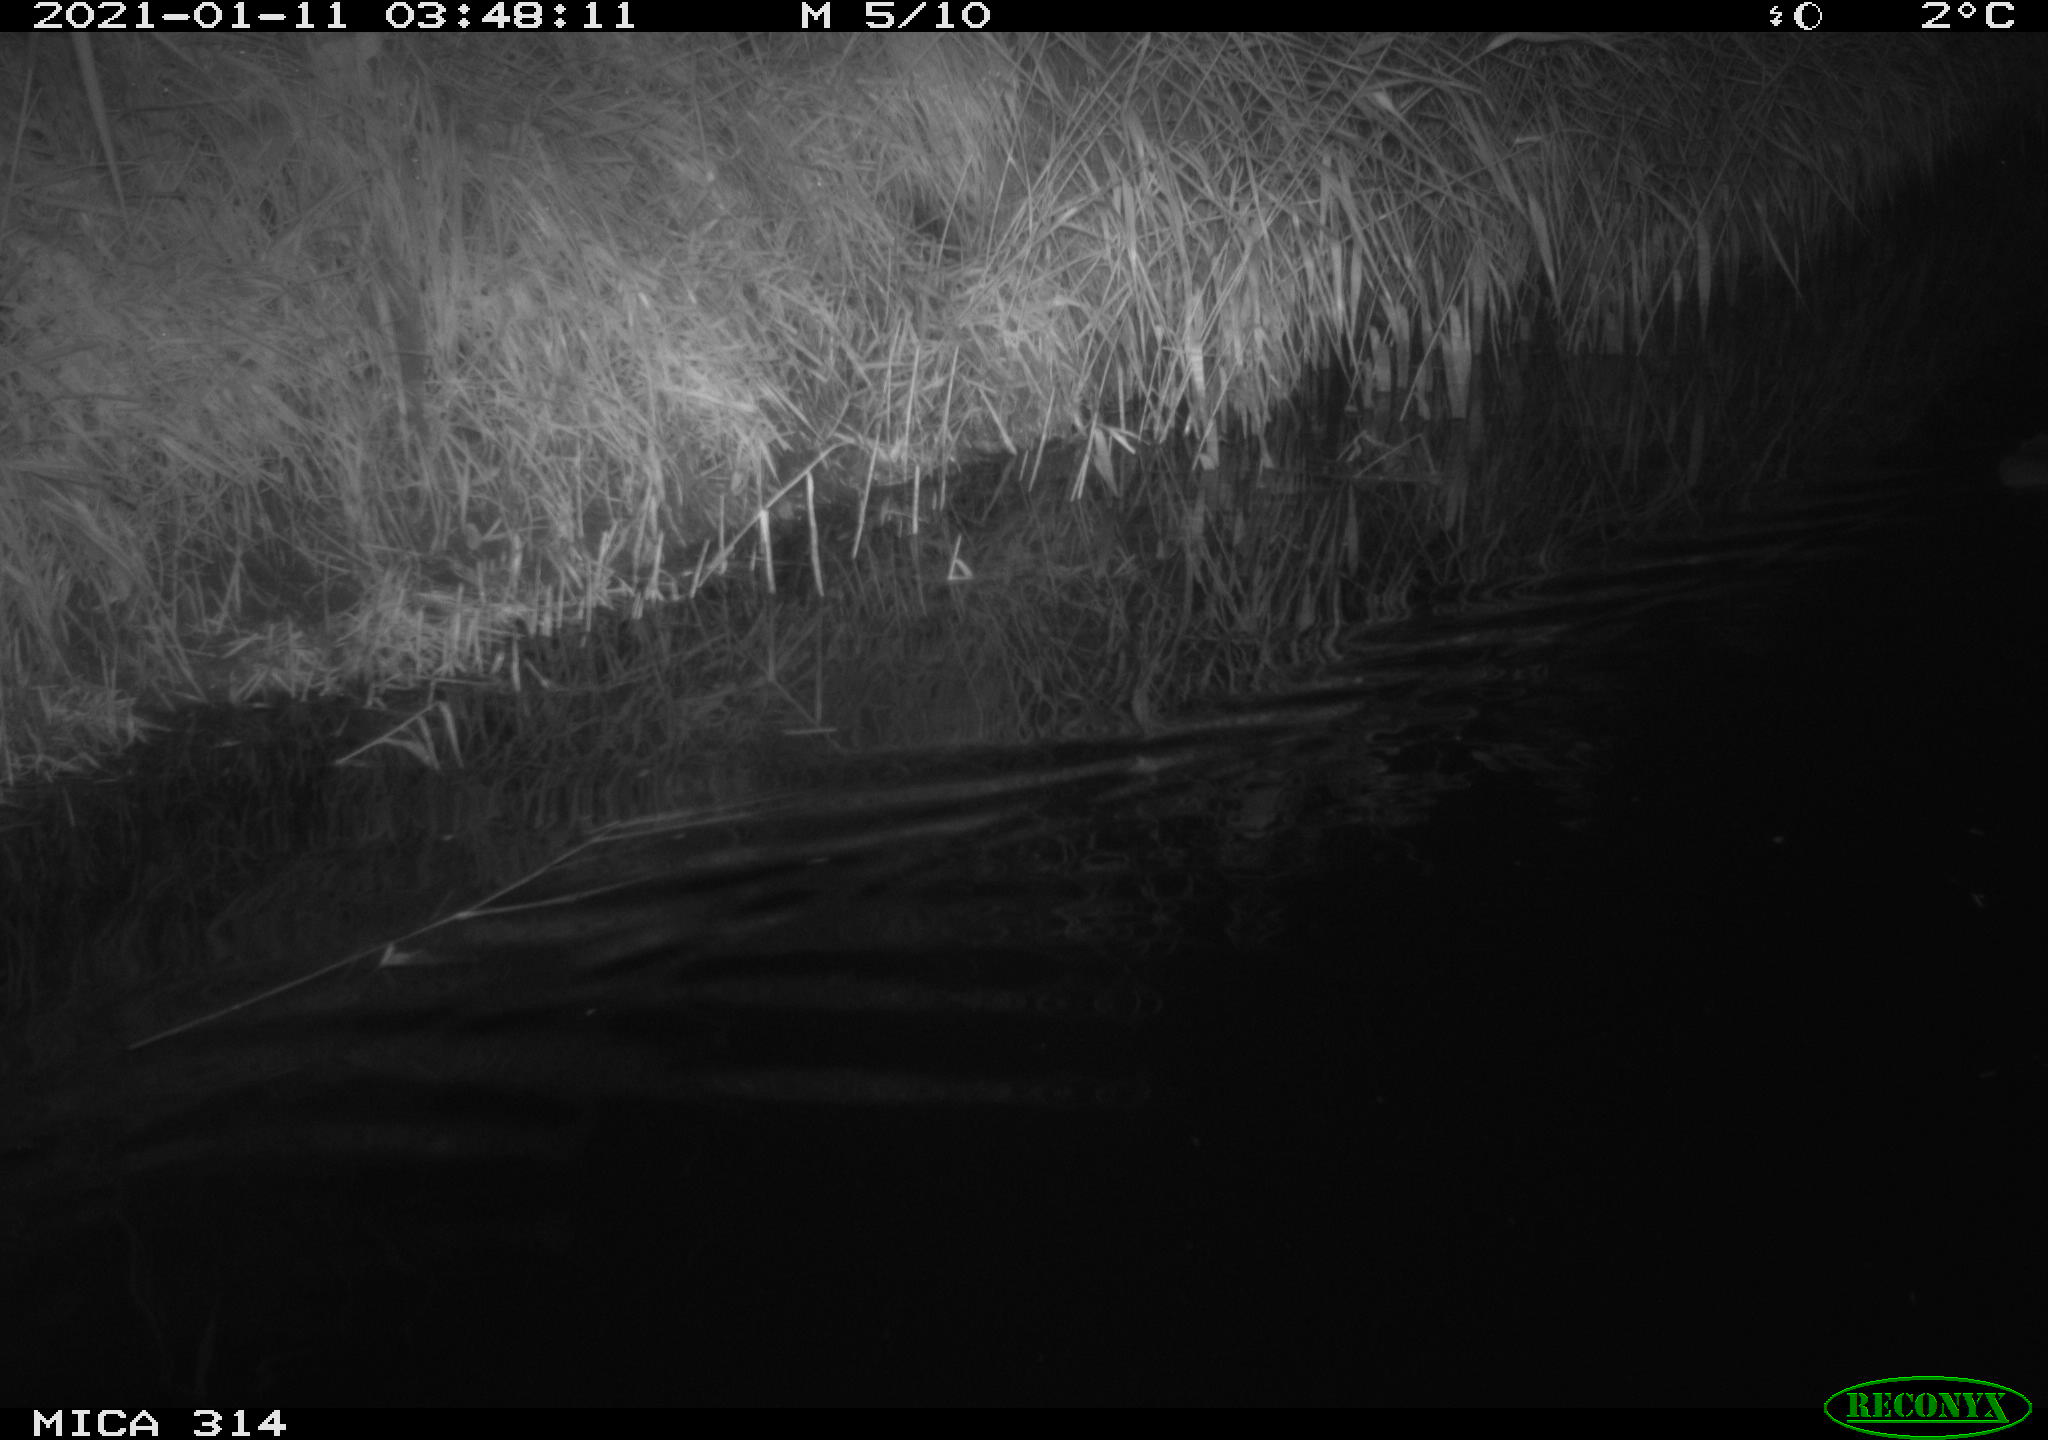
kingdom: Animalia
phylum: Chordata
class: Mammalia
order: Rodentia
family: Muridae
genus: Rattus
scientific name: Rattus norvegicus
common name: Brown rat
